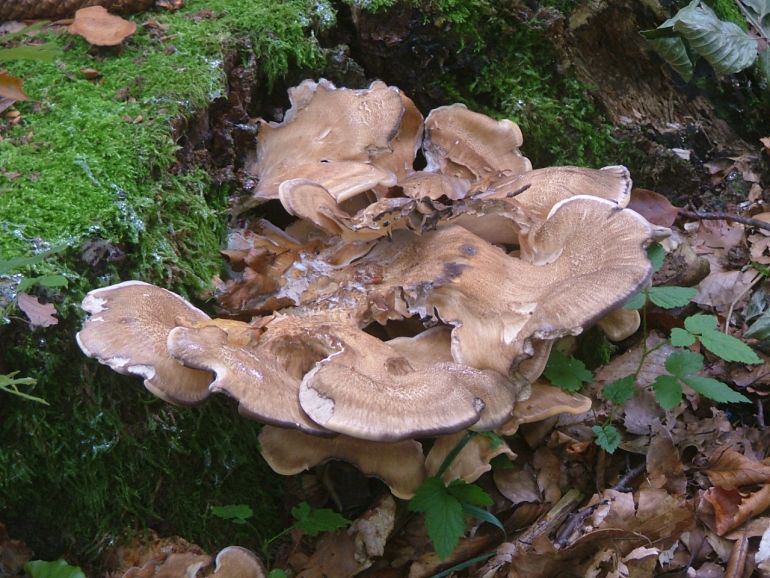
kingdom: Fungi
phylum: Basidiomycota
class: Agaricomycetes
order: Polyporales
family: Meripilaceae
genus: Meripilus
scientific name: Meripilus giganteus
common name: kæmpeporesvamp
